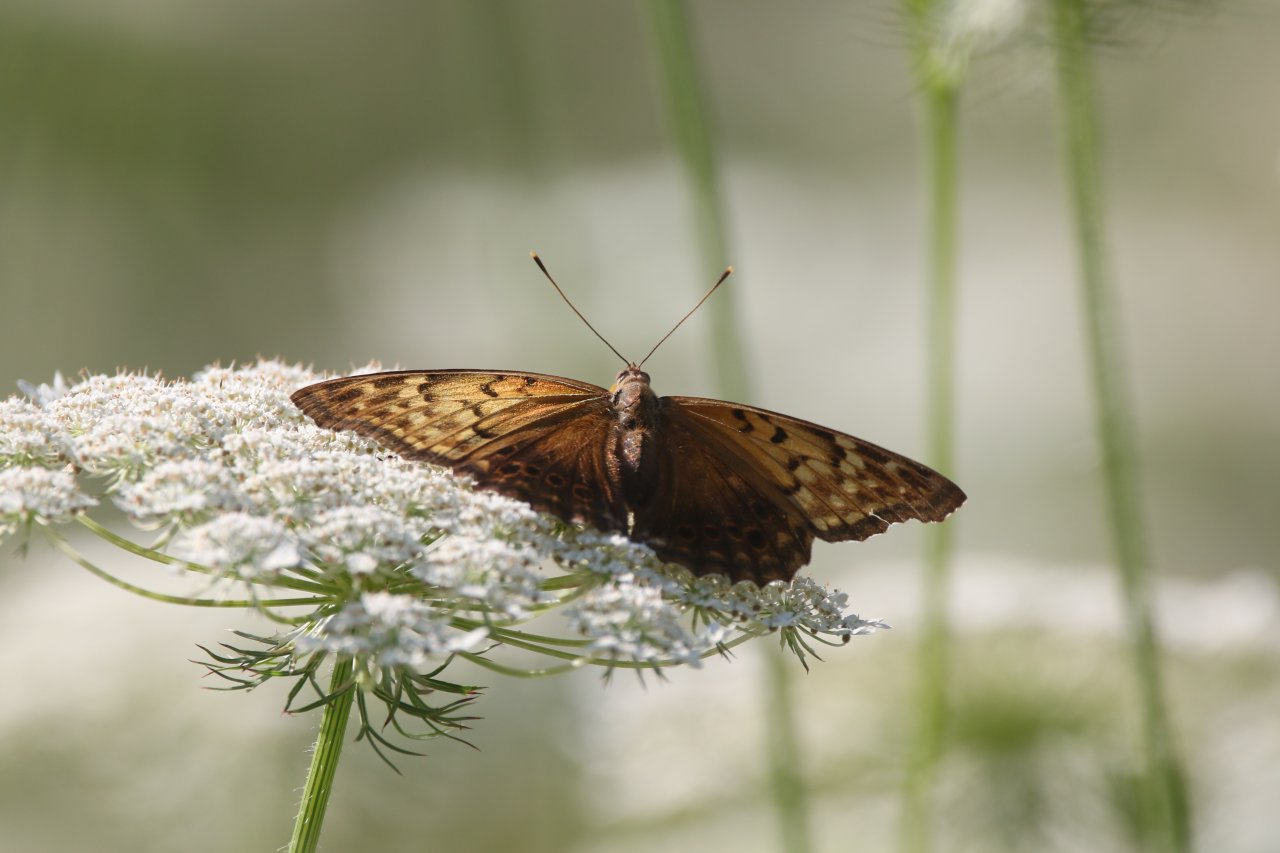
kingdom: Animalia
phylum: Arthropoda
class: Insecta
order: Lepidoptera
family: Nymphalidae
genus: Asterocampa
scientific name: Asterocampa clyton
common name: Tawny Emperor
